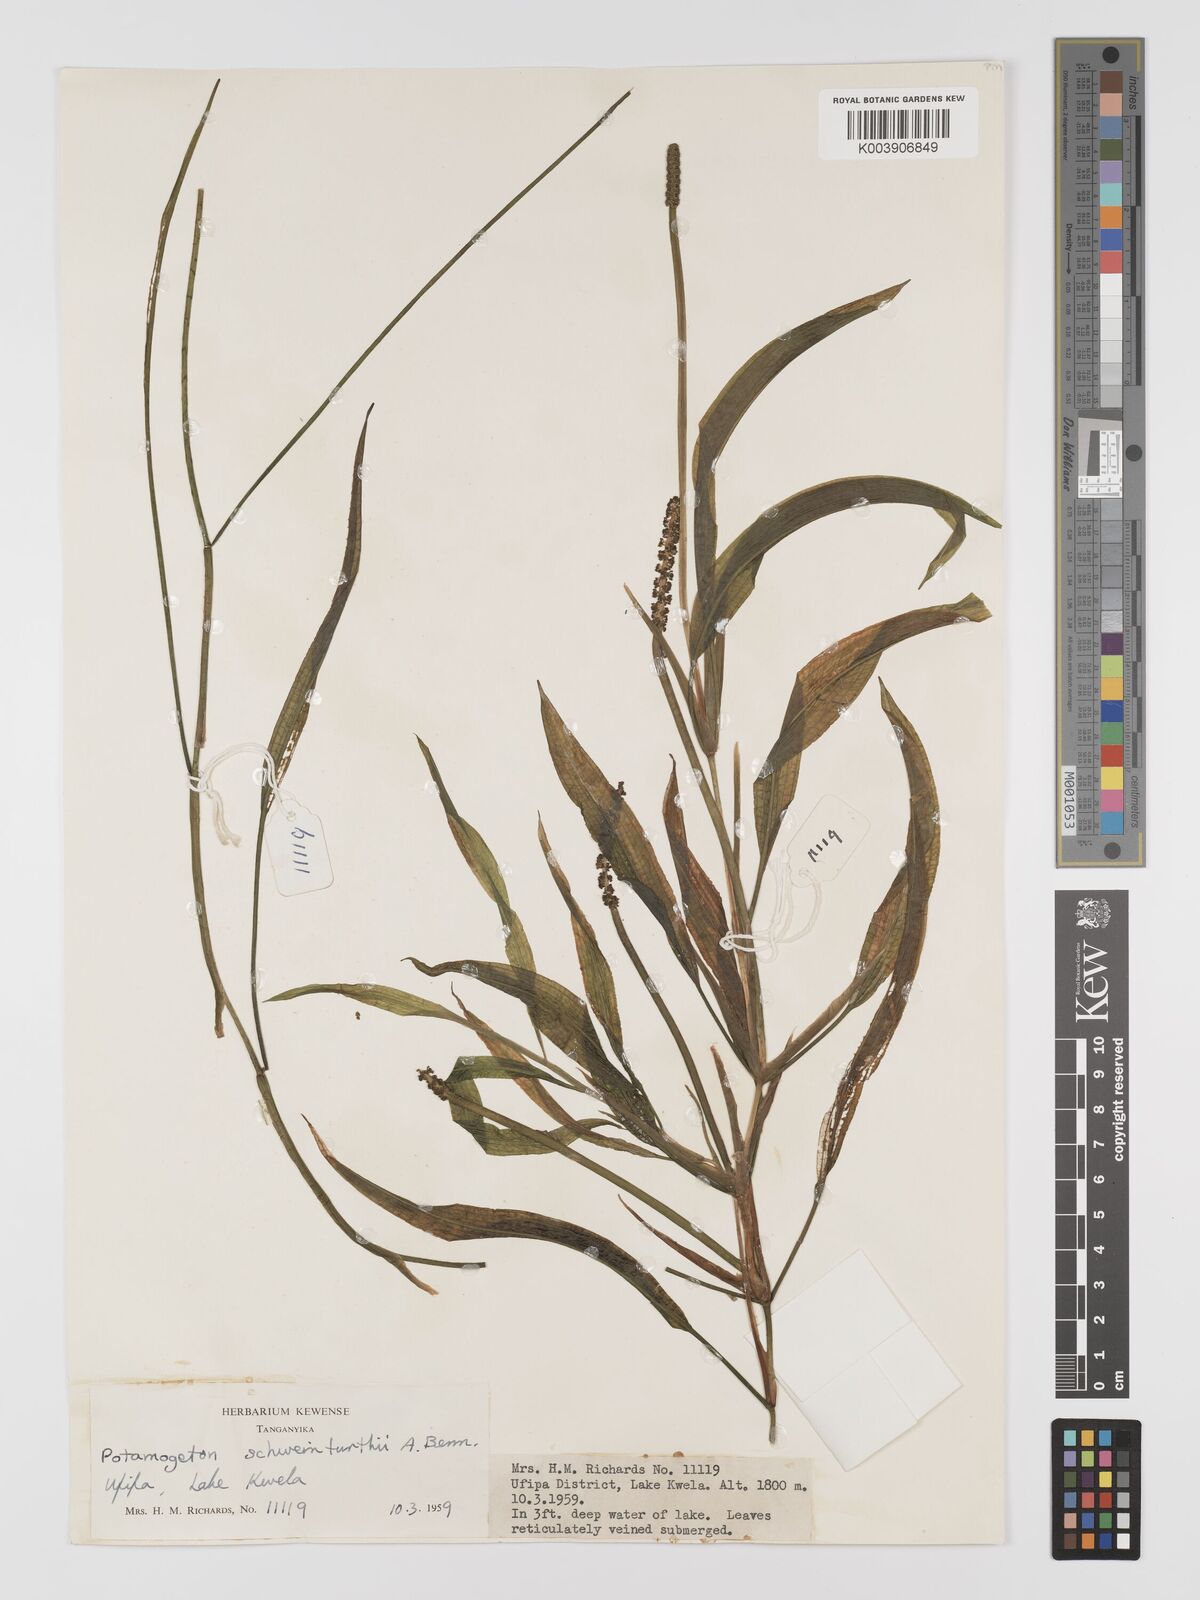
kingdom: Plantae
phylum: Tracheophyta
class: Liliopsida
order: Alismatales
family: Potamogetonaceae
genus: Potamogeton
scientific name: Potamogeton schweinfurthii
